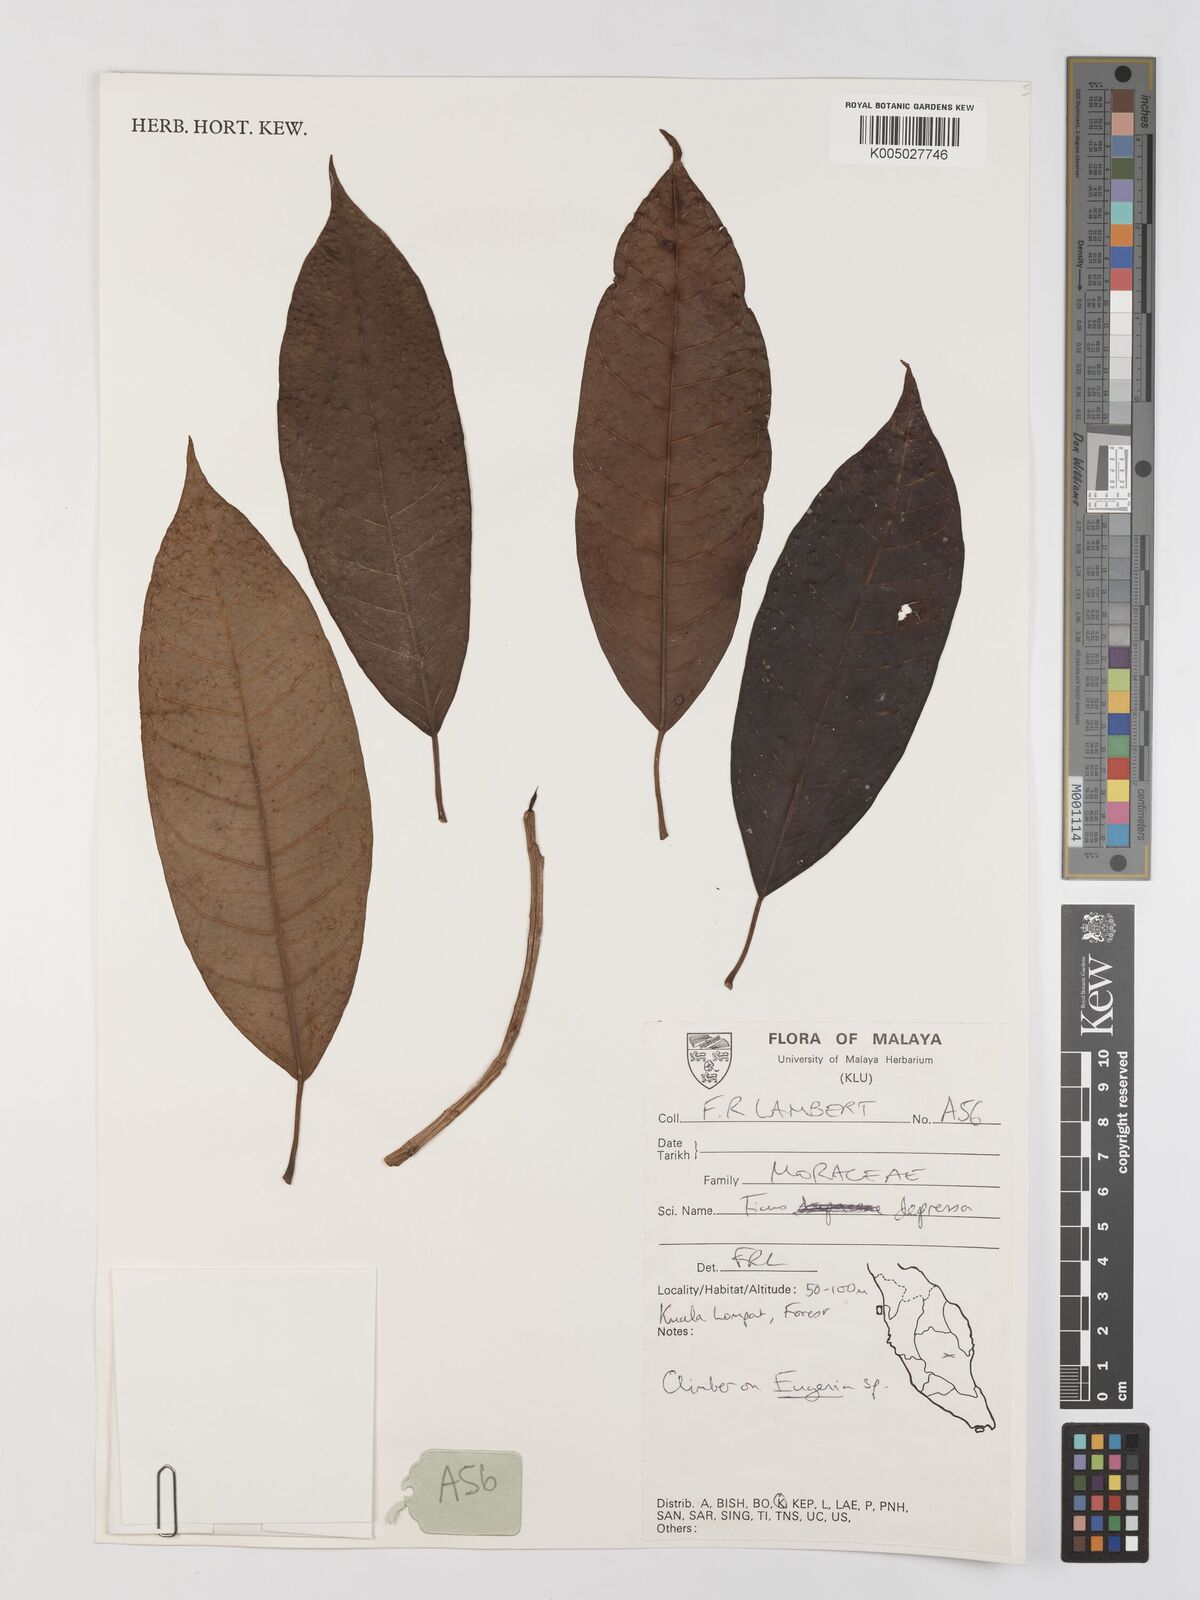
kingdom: Plantae
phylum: Tracheophyta
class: Magnoliopsida
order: Rosales
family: Moraceae
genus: Ficus
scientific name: Ficus
